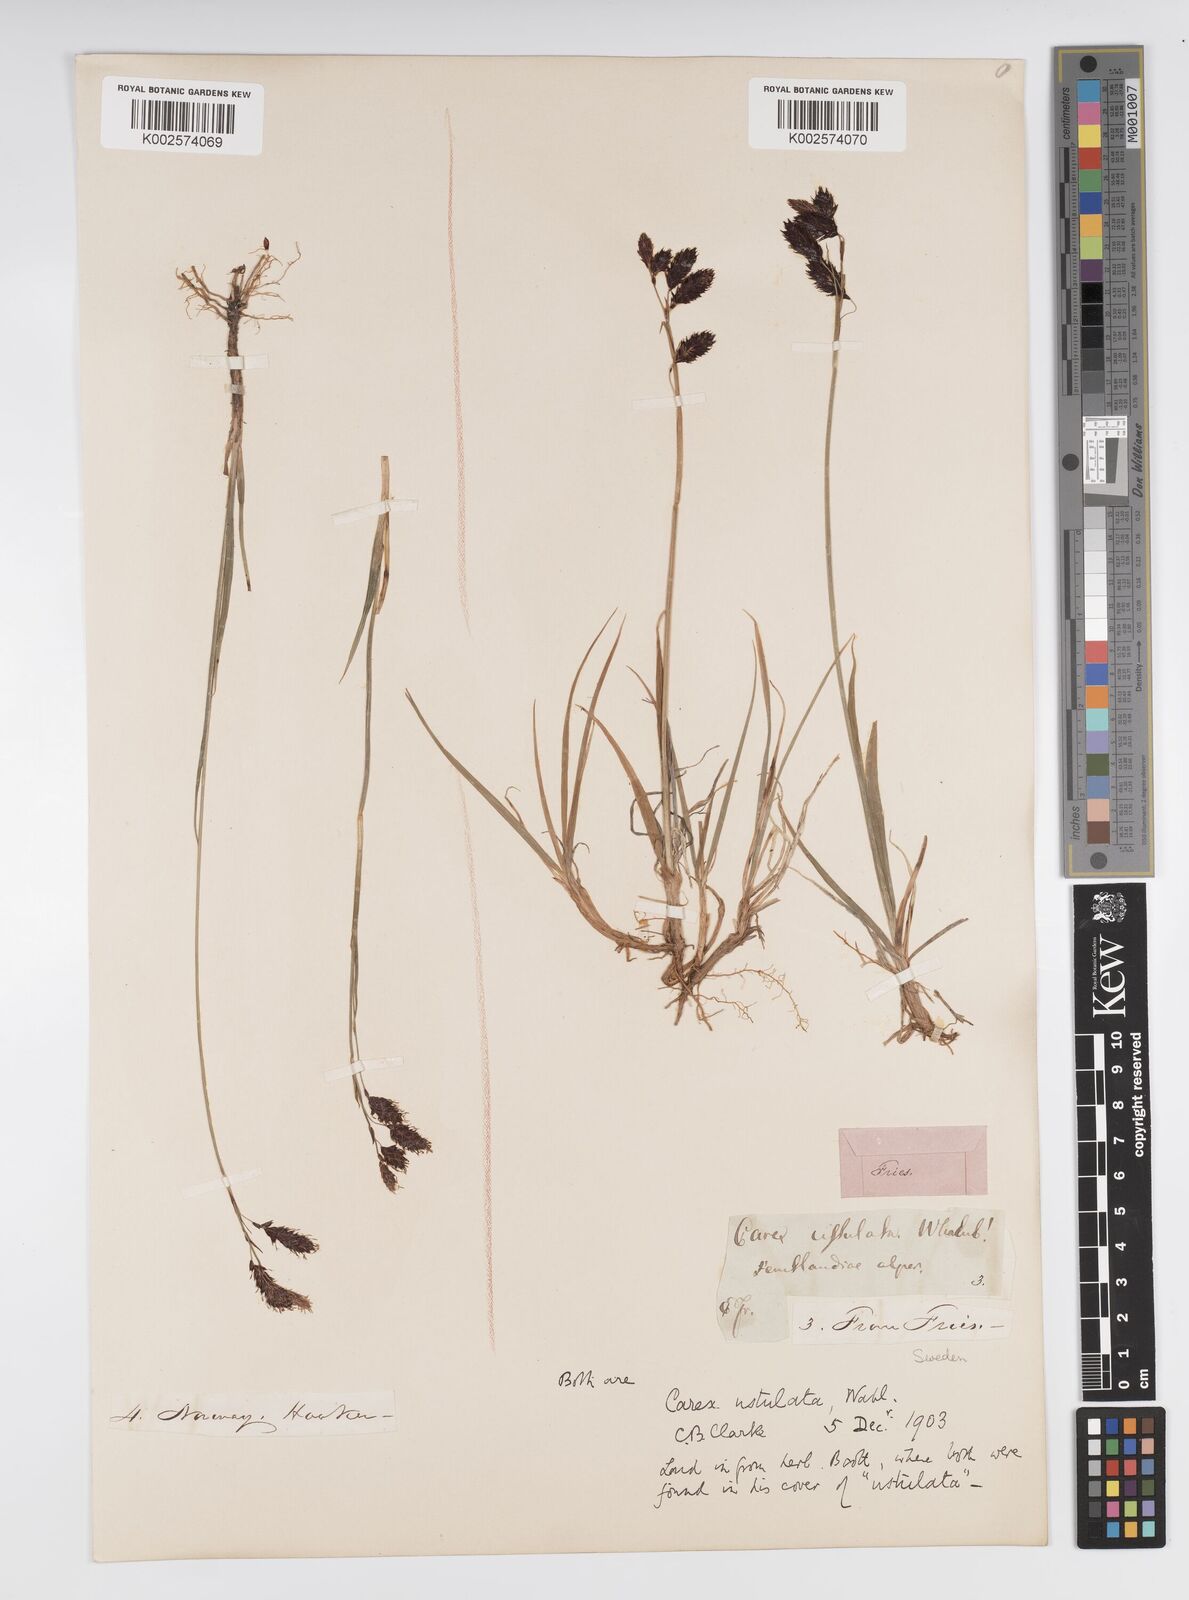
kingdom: Plantae
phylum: Tracheophyta
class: Liliopsida
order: Poales
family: Cyperaceae
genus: Carex
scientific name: Carex atrofusca
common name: Scorched alpine-sedge
